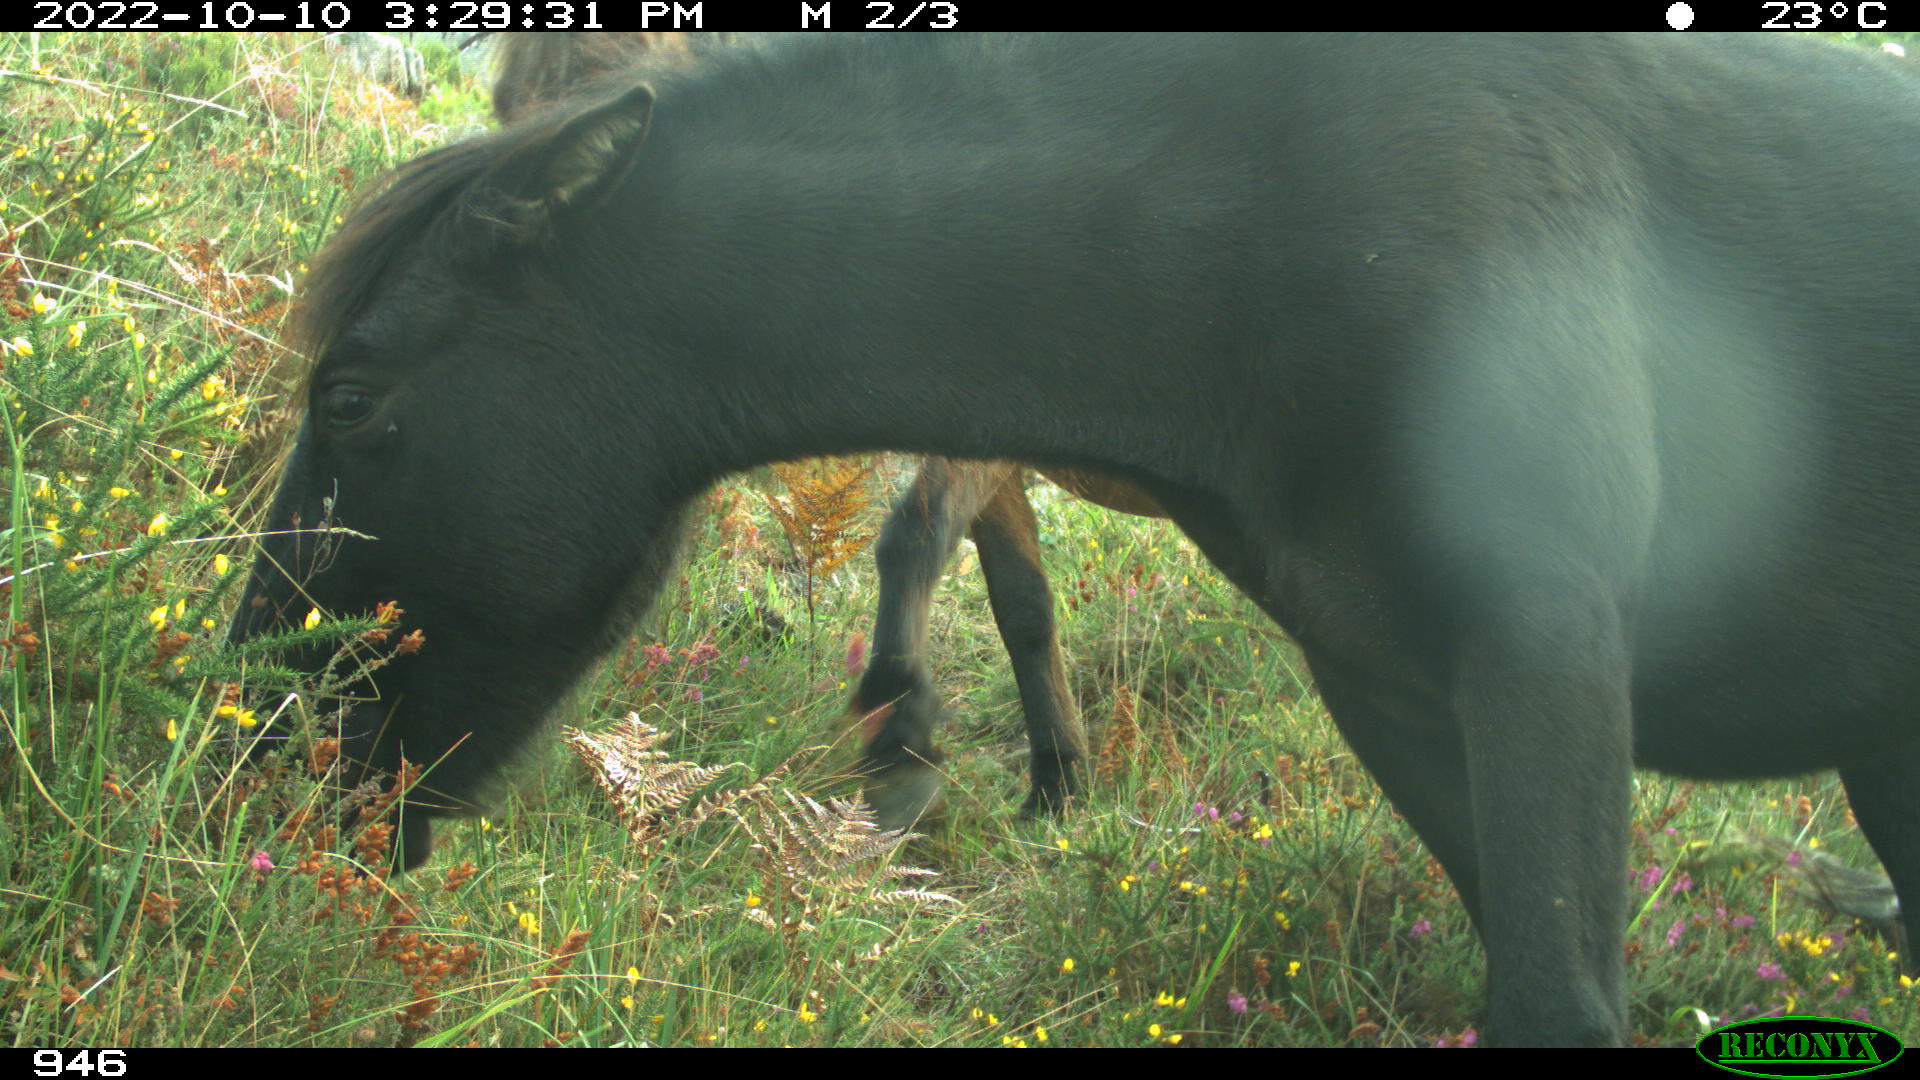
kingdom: Animalia
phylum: Chordata
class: Mammalia
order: Perissodactyla
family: Equidae
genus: Equus
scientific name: Equus caballus
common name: Horse
